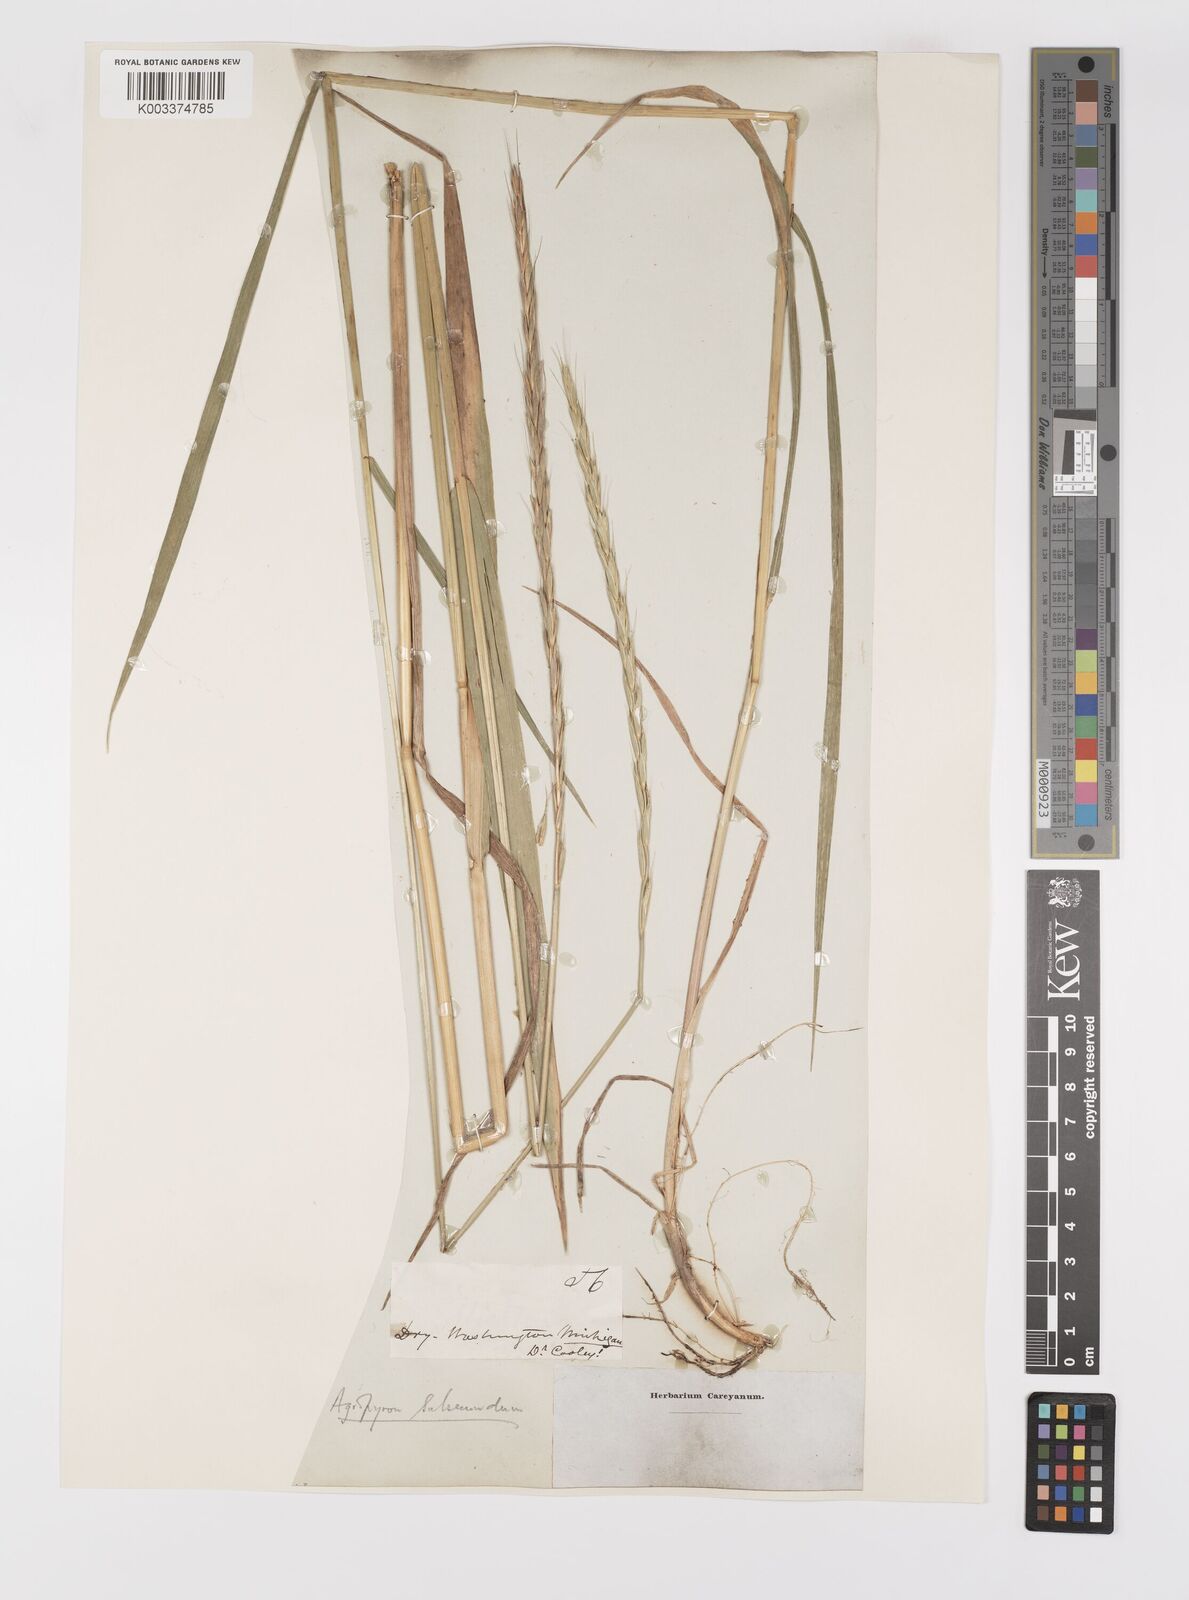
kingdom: Plantae
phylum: Tracheophyta
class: Liliopsida
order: Poales
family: Poaceae
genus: Elymus
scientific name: Elymus violaceus
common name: Arctic wheatgrass
